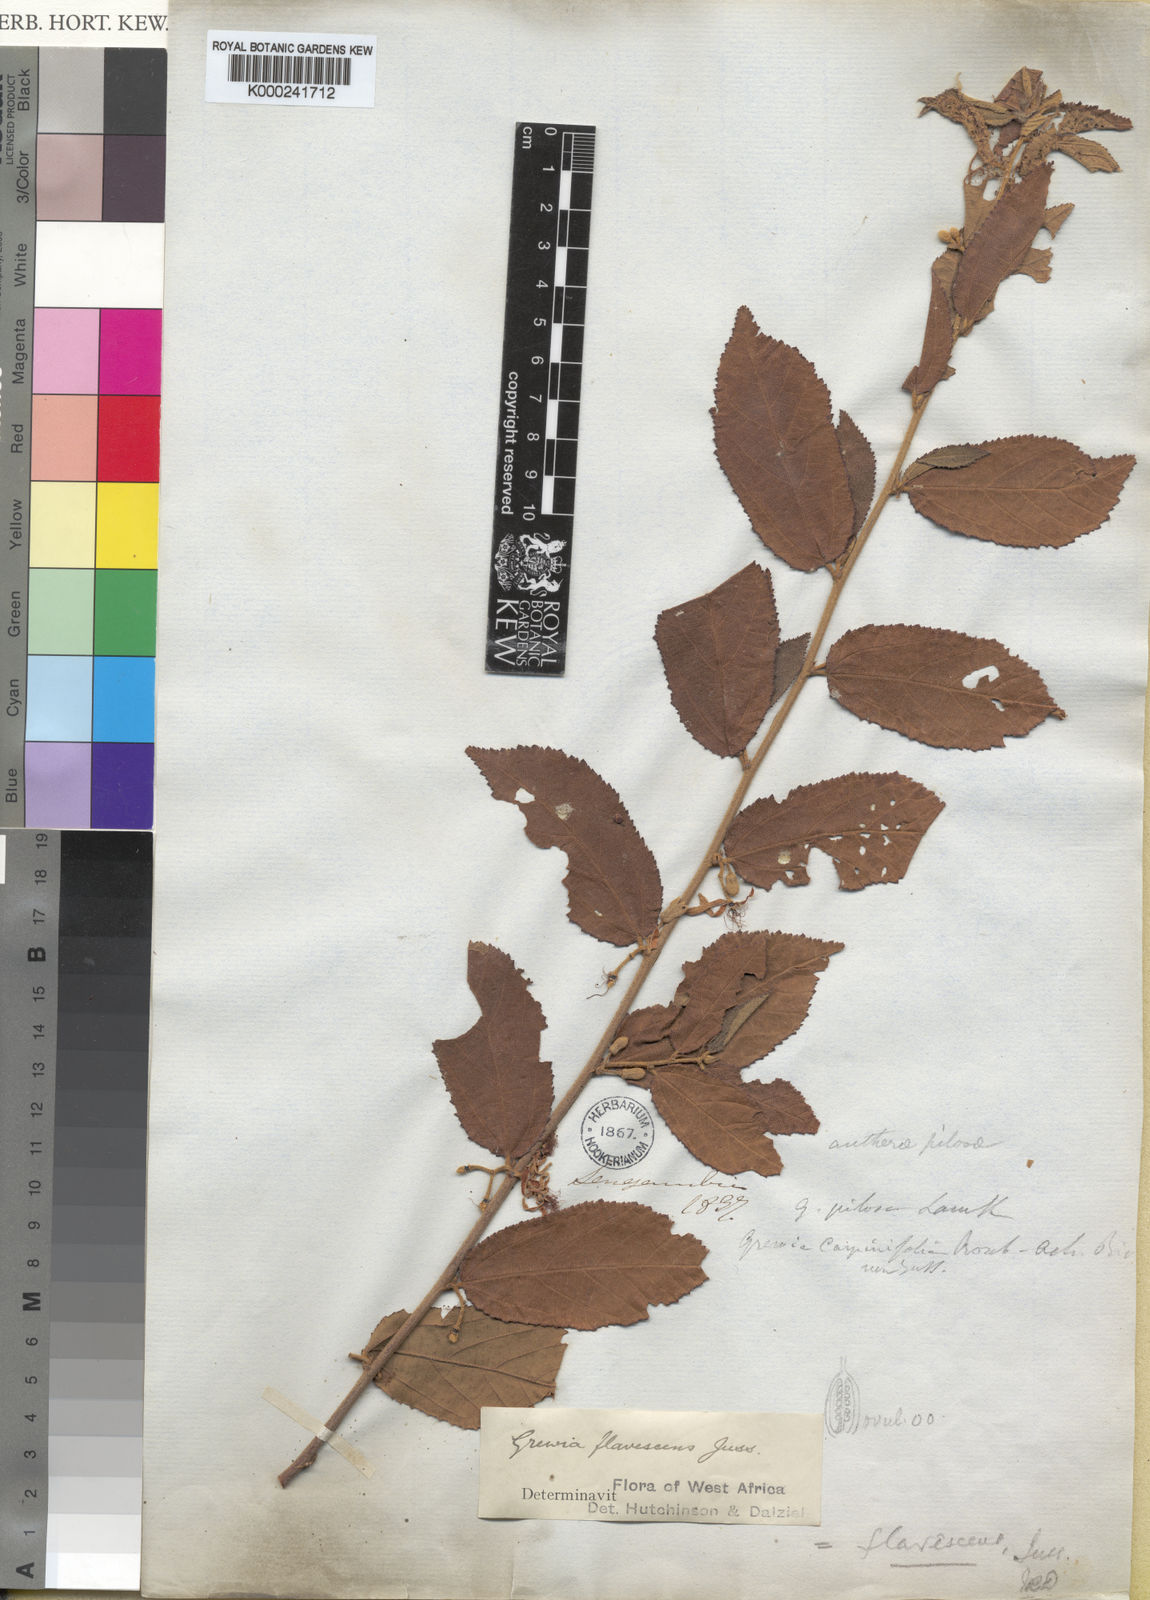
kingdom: Plantae
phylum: Tracheophyta
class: Magnoliopsida
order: Malvales
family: Malvaceae
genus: Grewia
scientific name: Grewia flavescens
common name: Sandpaper raisin
